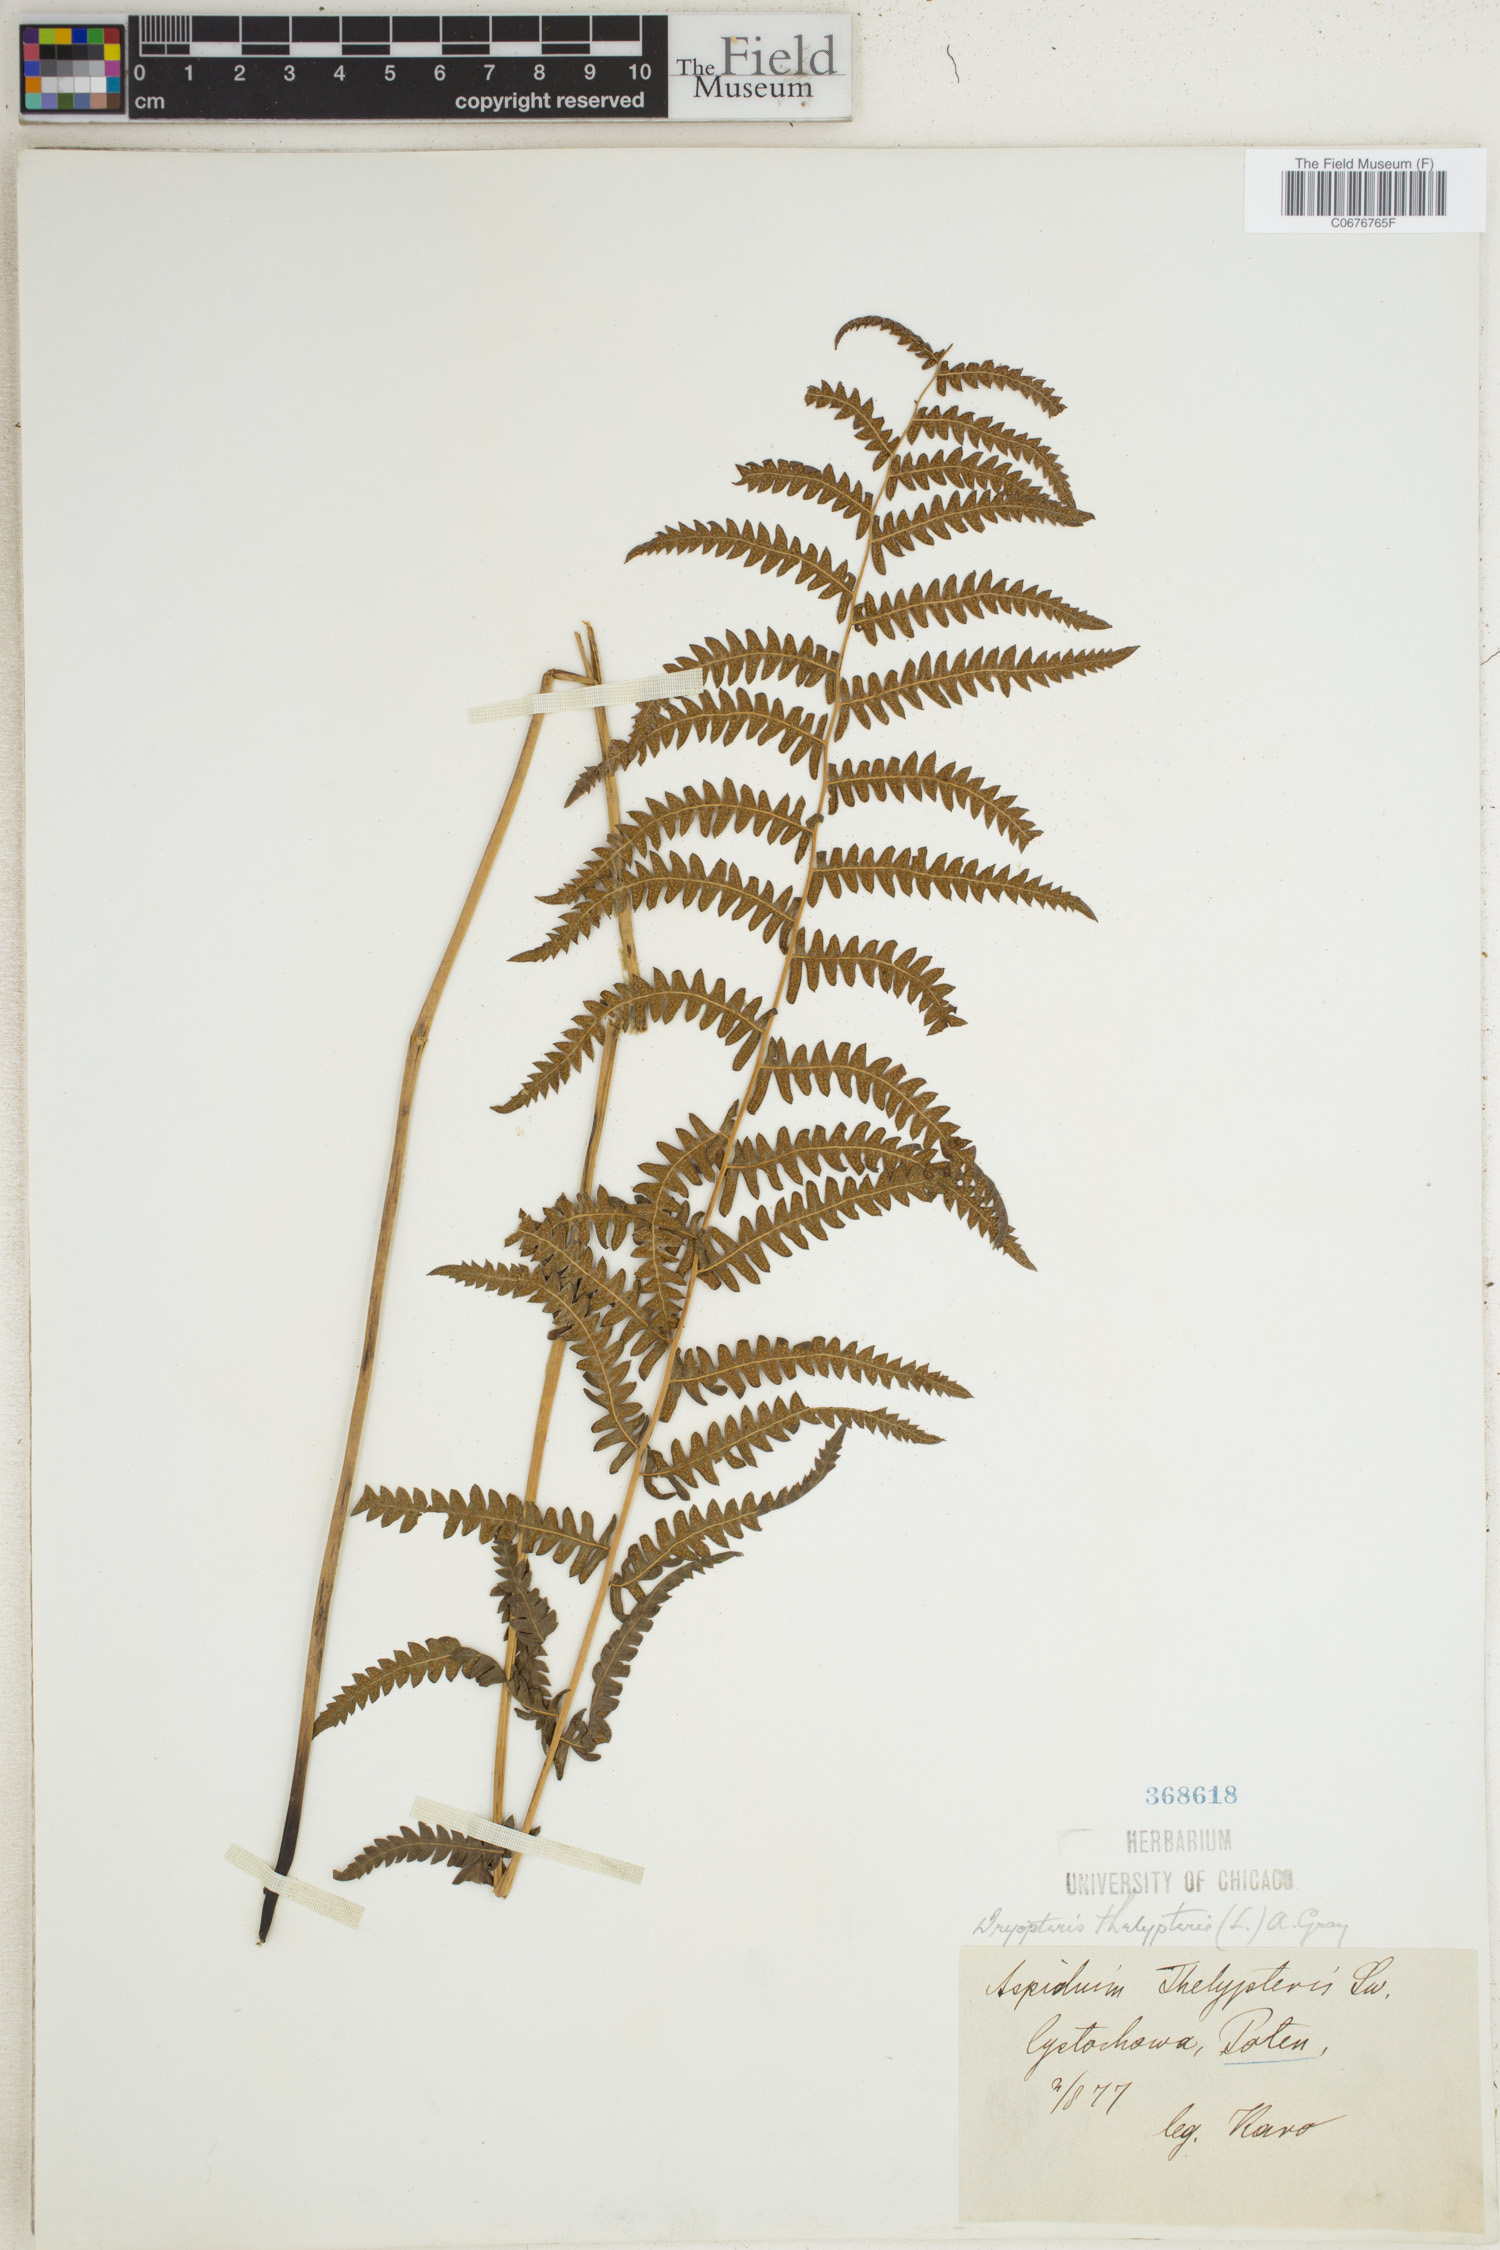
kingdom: Plantae
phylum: Tracheophyta
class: Polypodiopsida
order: Polypodiales
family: Thelypteridaceae
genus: Thelypteris
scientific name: Thelypteris palustris
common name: Marsh fern
